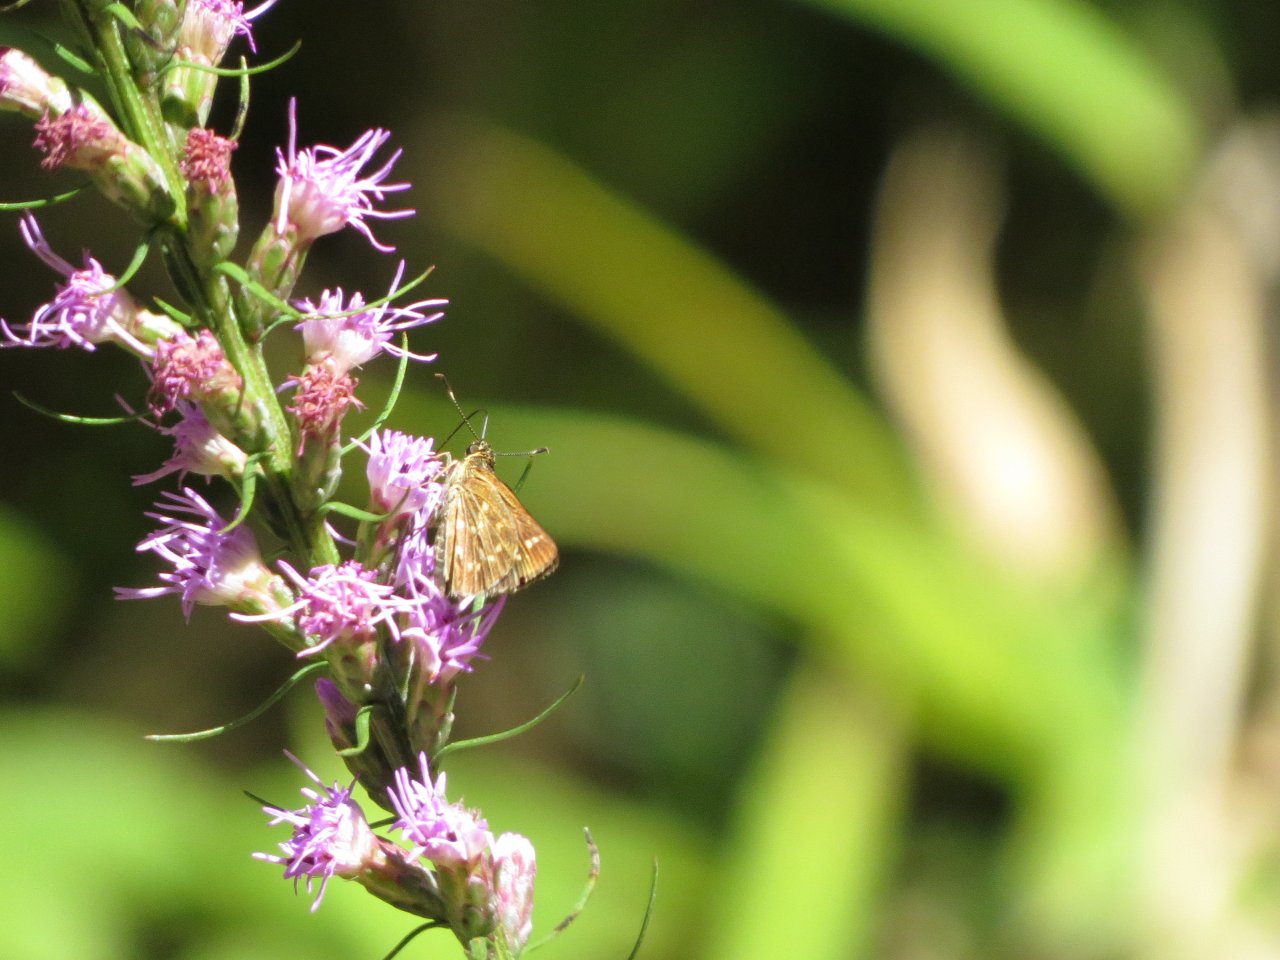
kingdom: Animalia
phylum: Arthropoda
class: Insecta
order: Lepidoptera
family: Hesperiidae
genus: Mastor
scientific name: Mastor carolina
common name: Reversed Roadside-skipper
